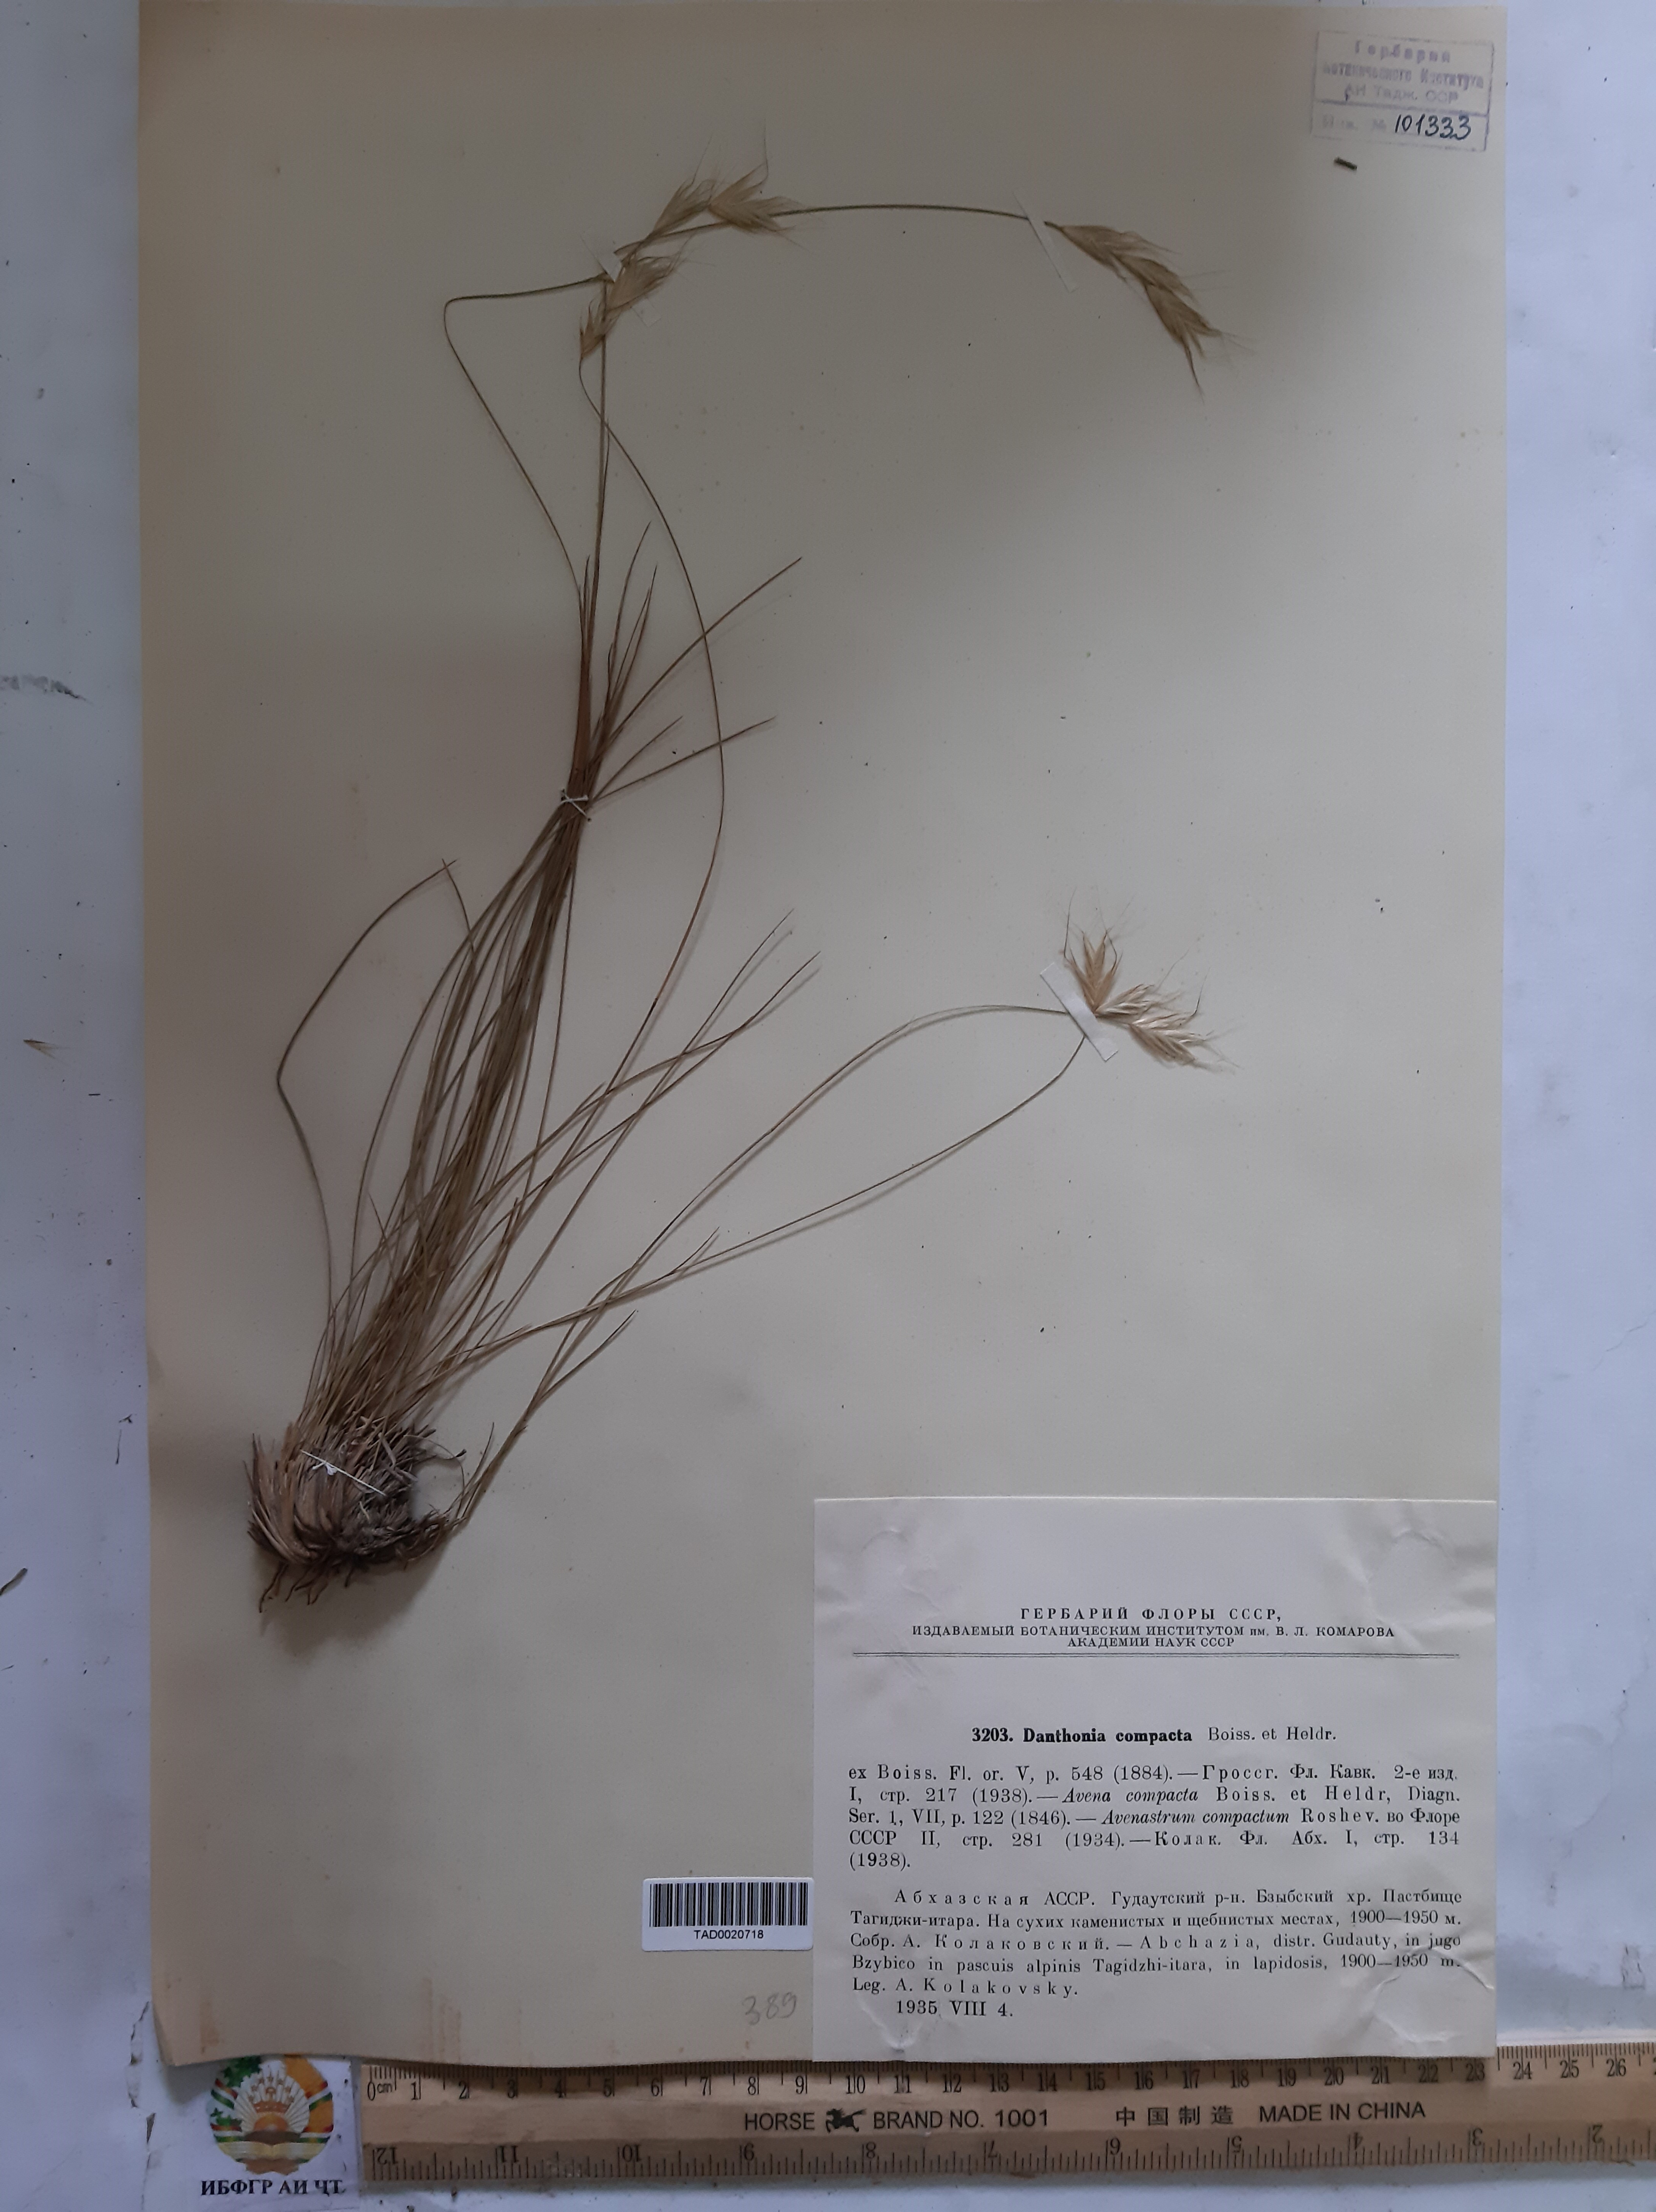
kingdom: Plantae
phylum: Tracheophyta
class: Liliopsida
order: Poales
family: Poaceae
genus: Danthoniastrum
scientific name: Danthoniastrum compactum
